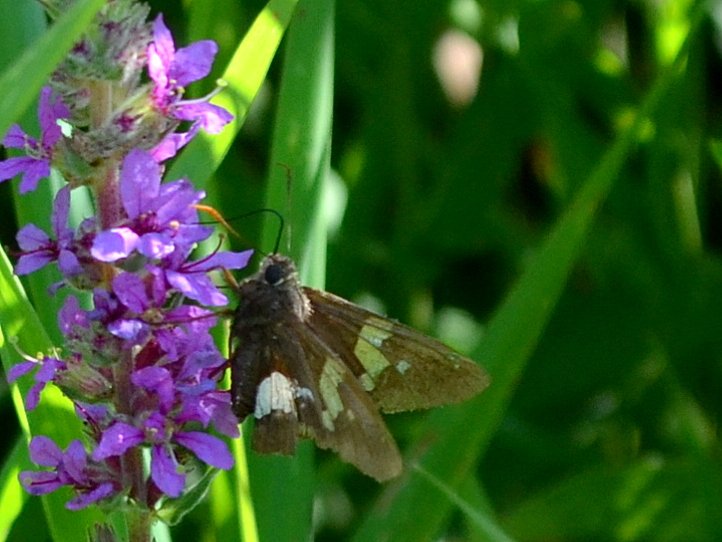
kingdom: Animalia
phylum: Arthropoda
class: Insecta
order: Lepidoptera
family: Hesperiidae
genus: Epargyreus
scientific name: Epargyreus clarus
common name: Silver-spotted Skipper
